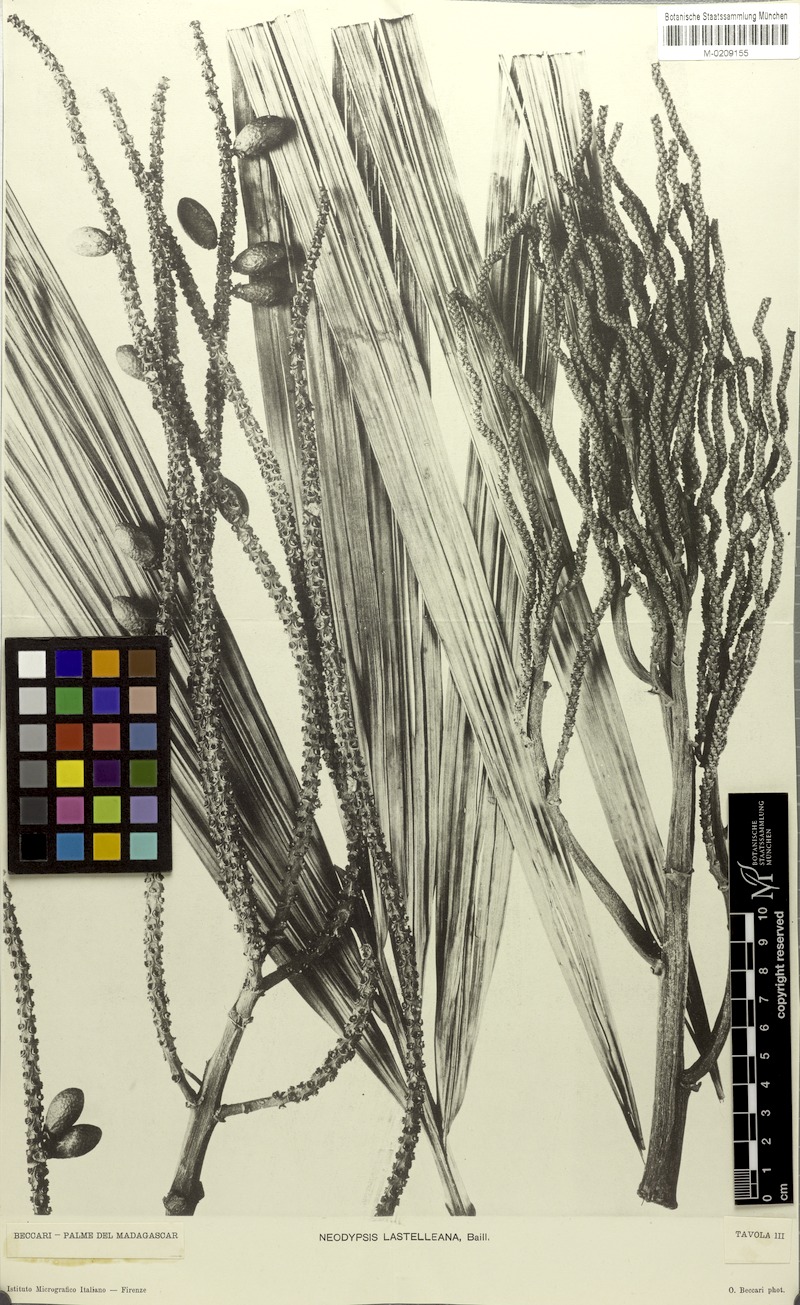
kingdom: Plantae
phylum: Tracheophyta
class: Liliopsida
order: Arecales
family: Arecaceae
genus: Dypsis
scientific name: Dypsis lastelliana
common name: Redneck palm
